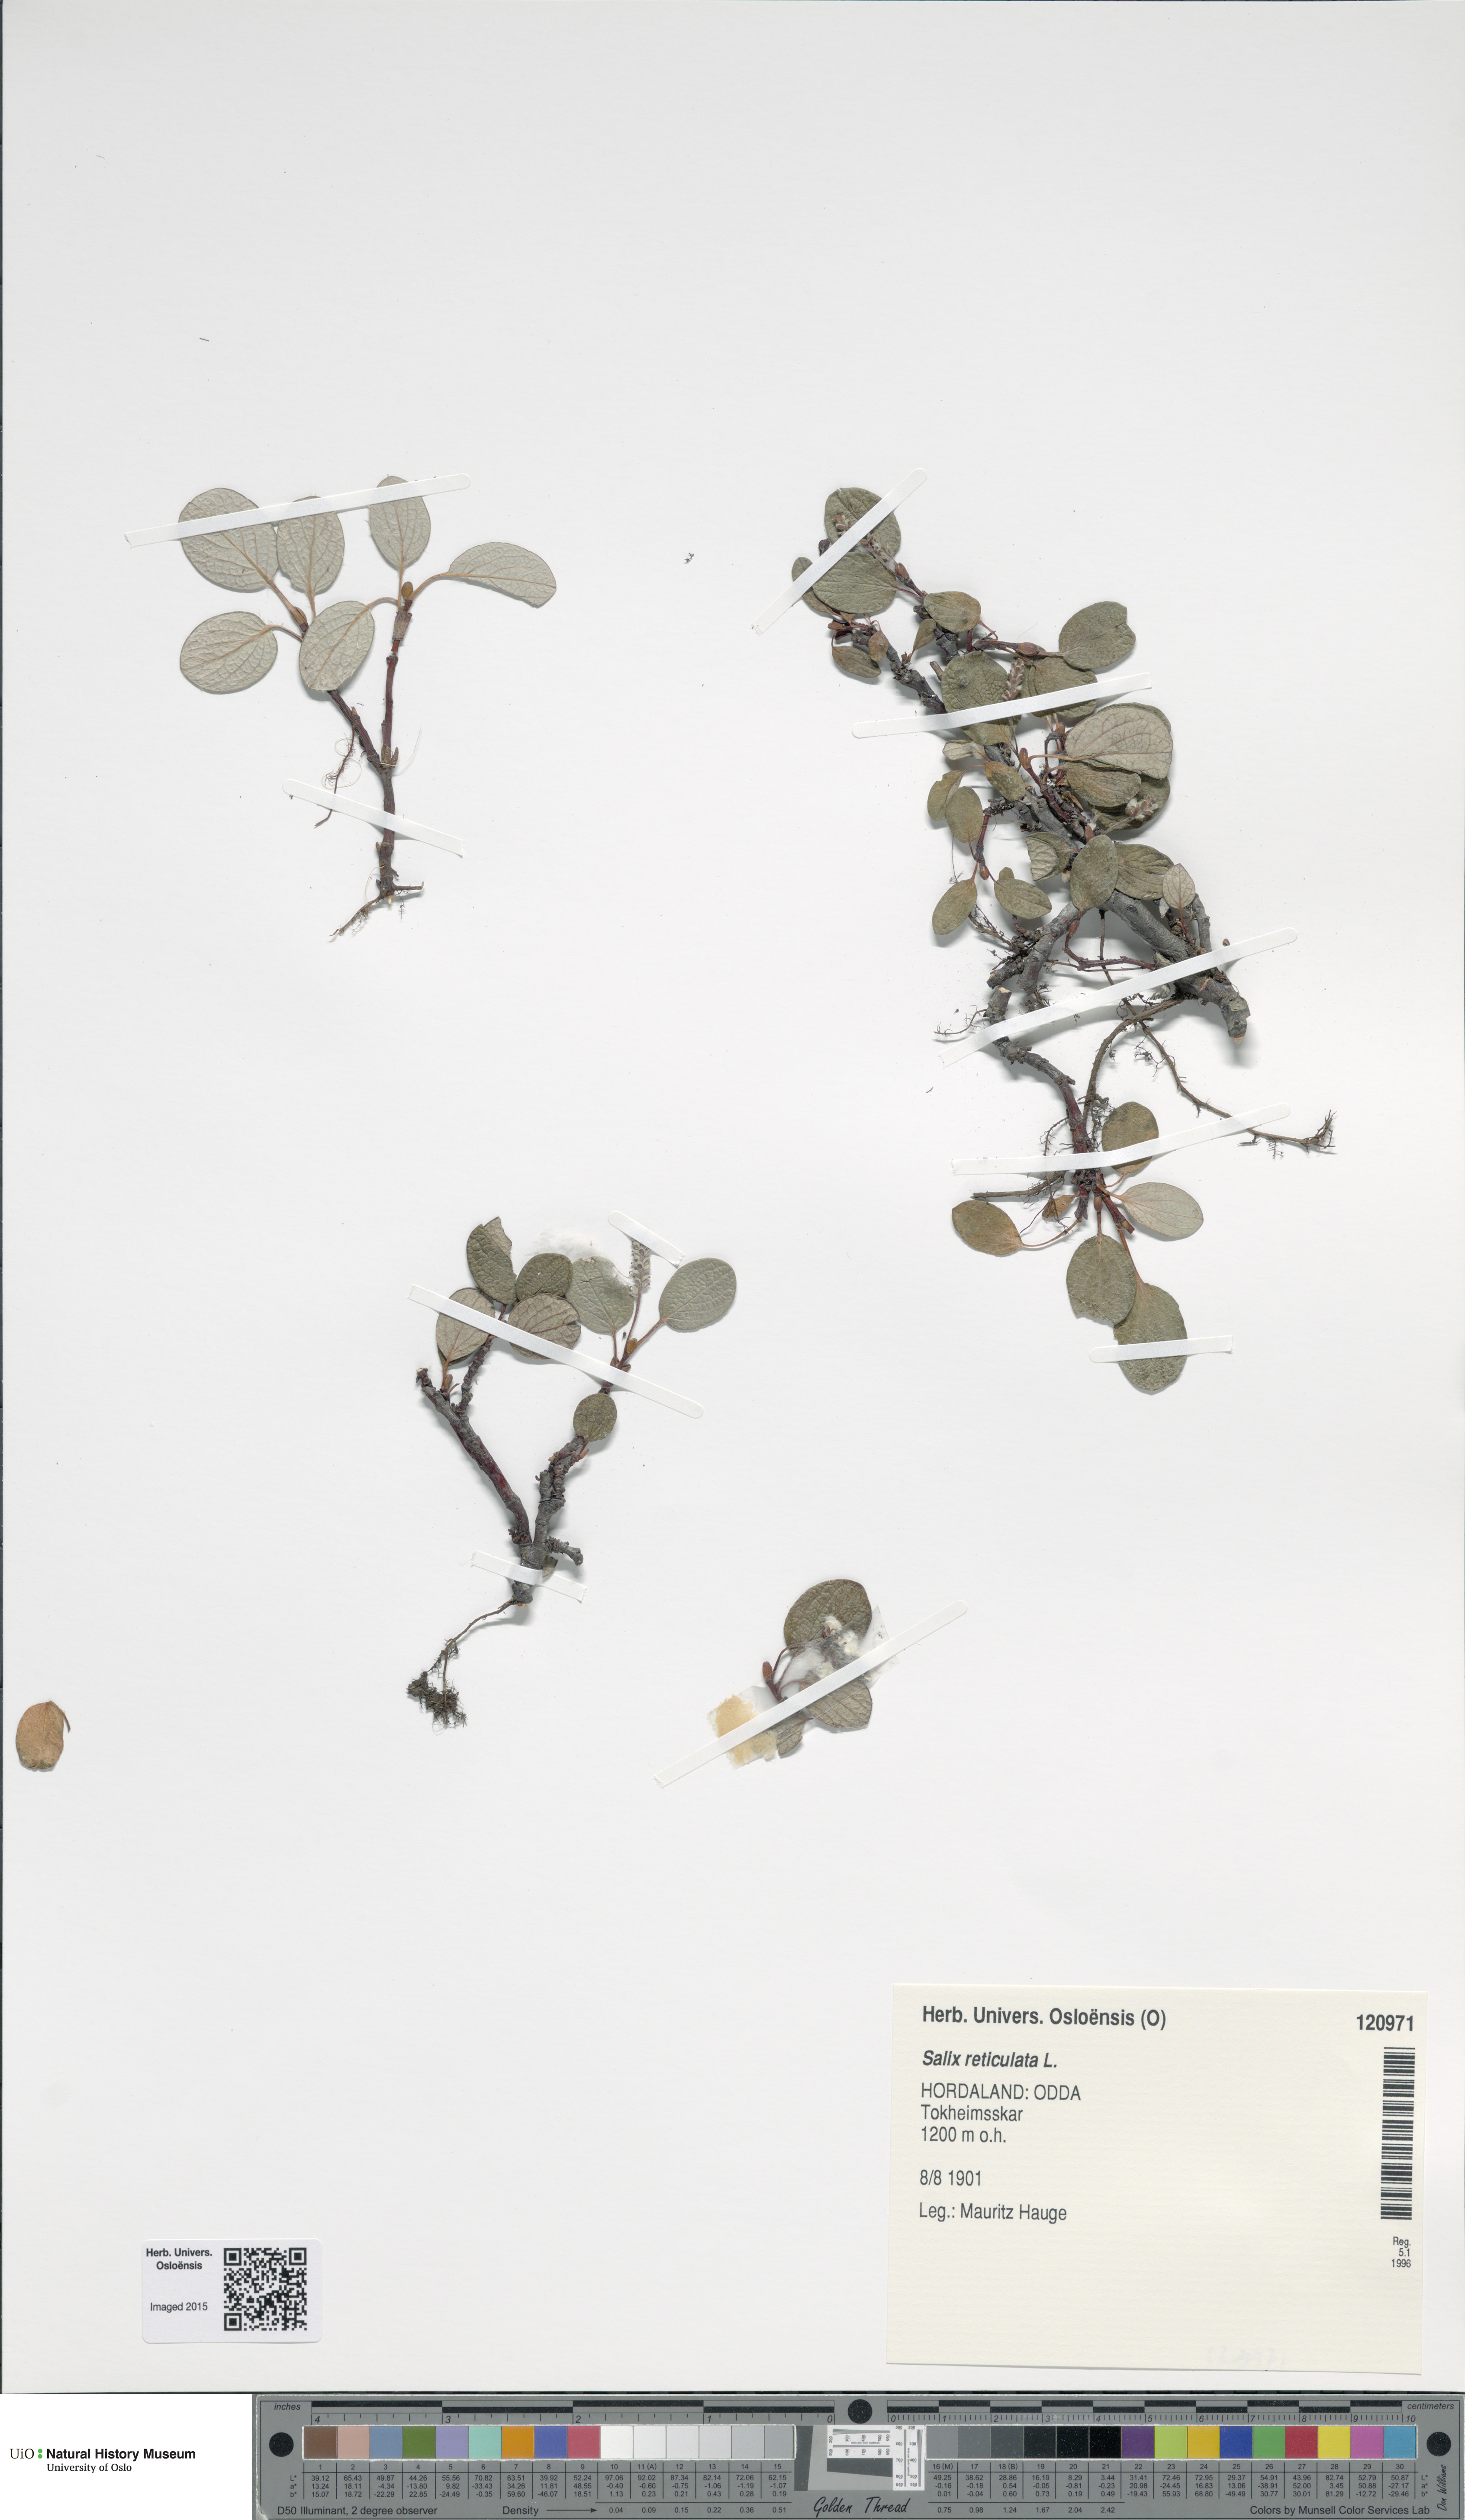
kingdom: Plantae
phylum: Tracheophyta
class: Magnoliopsida
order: Malpighiales
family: Salicaceae
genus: Salix
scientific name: Salix reticulata
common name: Net-leaved willow
